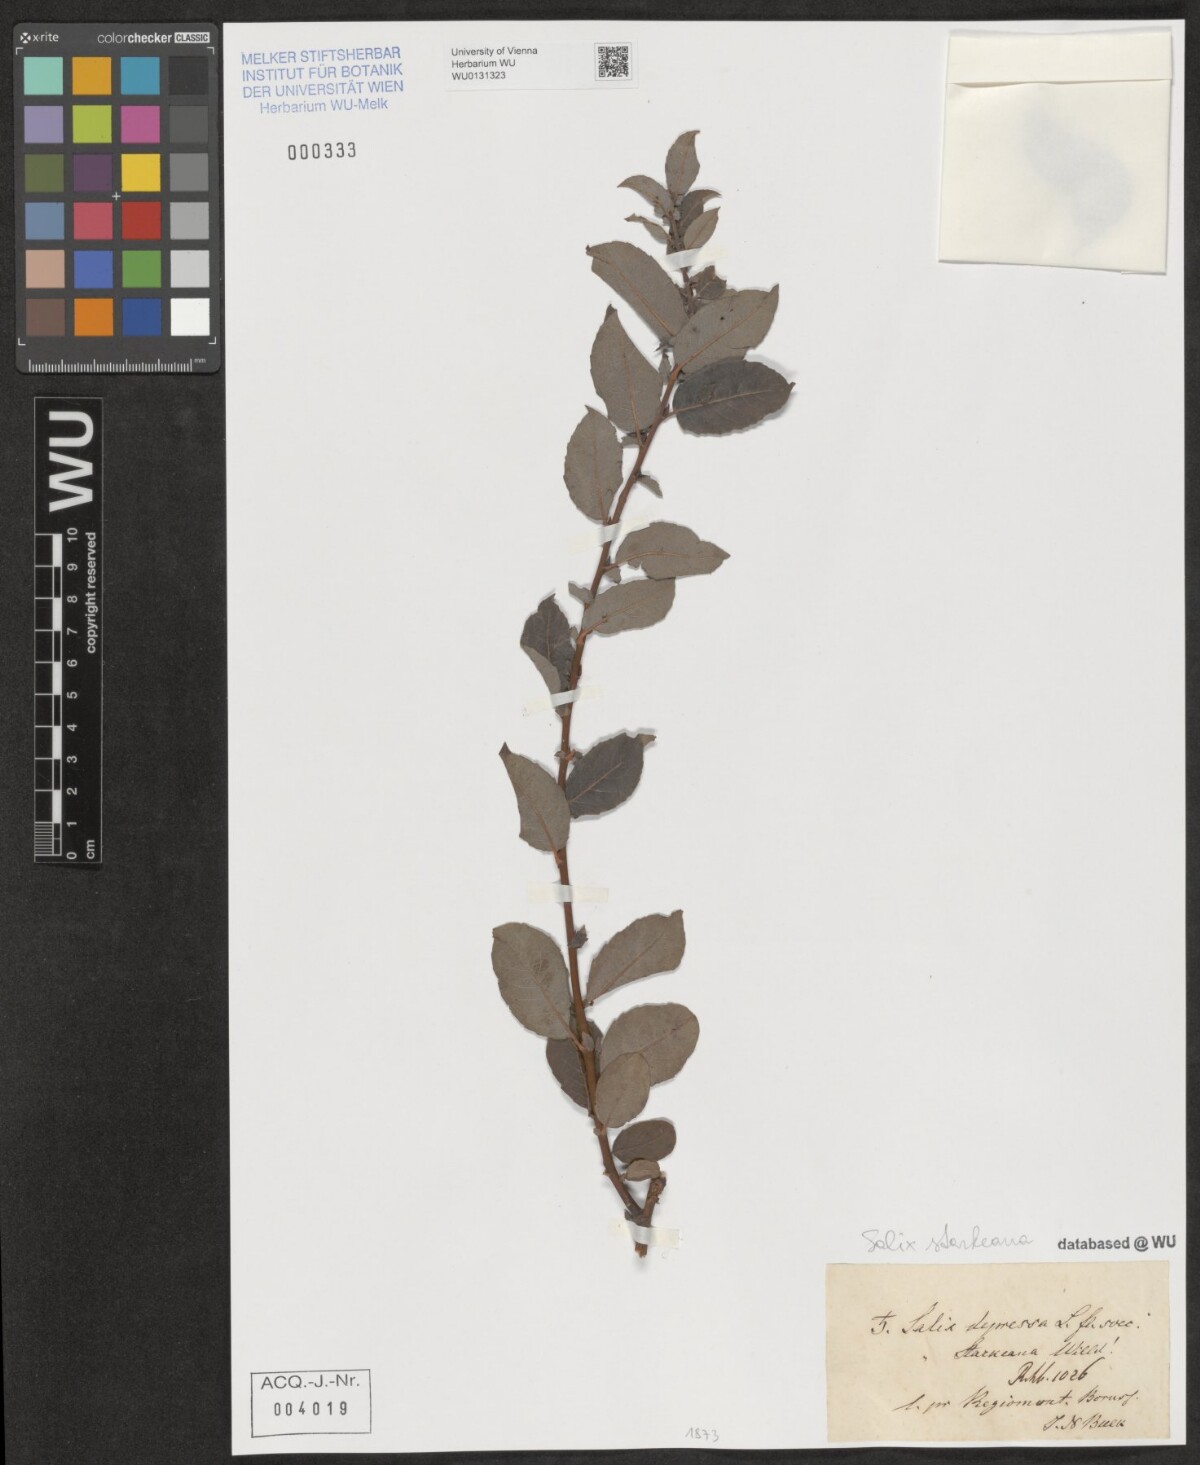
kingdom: Plantae
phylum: Tracheophyta
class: Magnoliopsida
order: Malpighiales
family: Salicaceae
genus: Salix
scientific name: Salix starkeana
